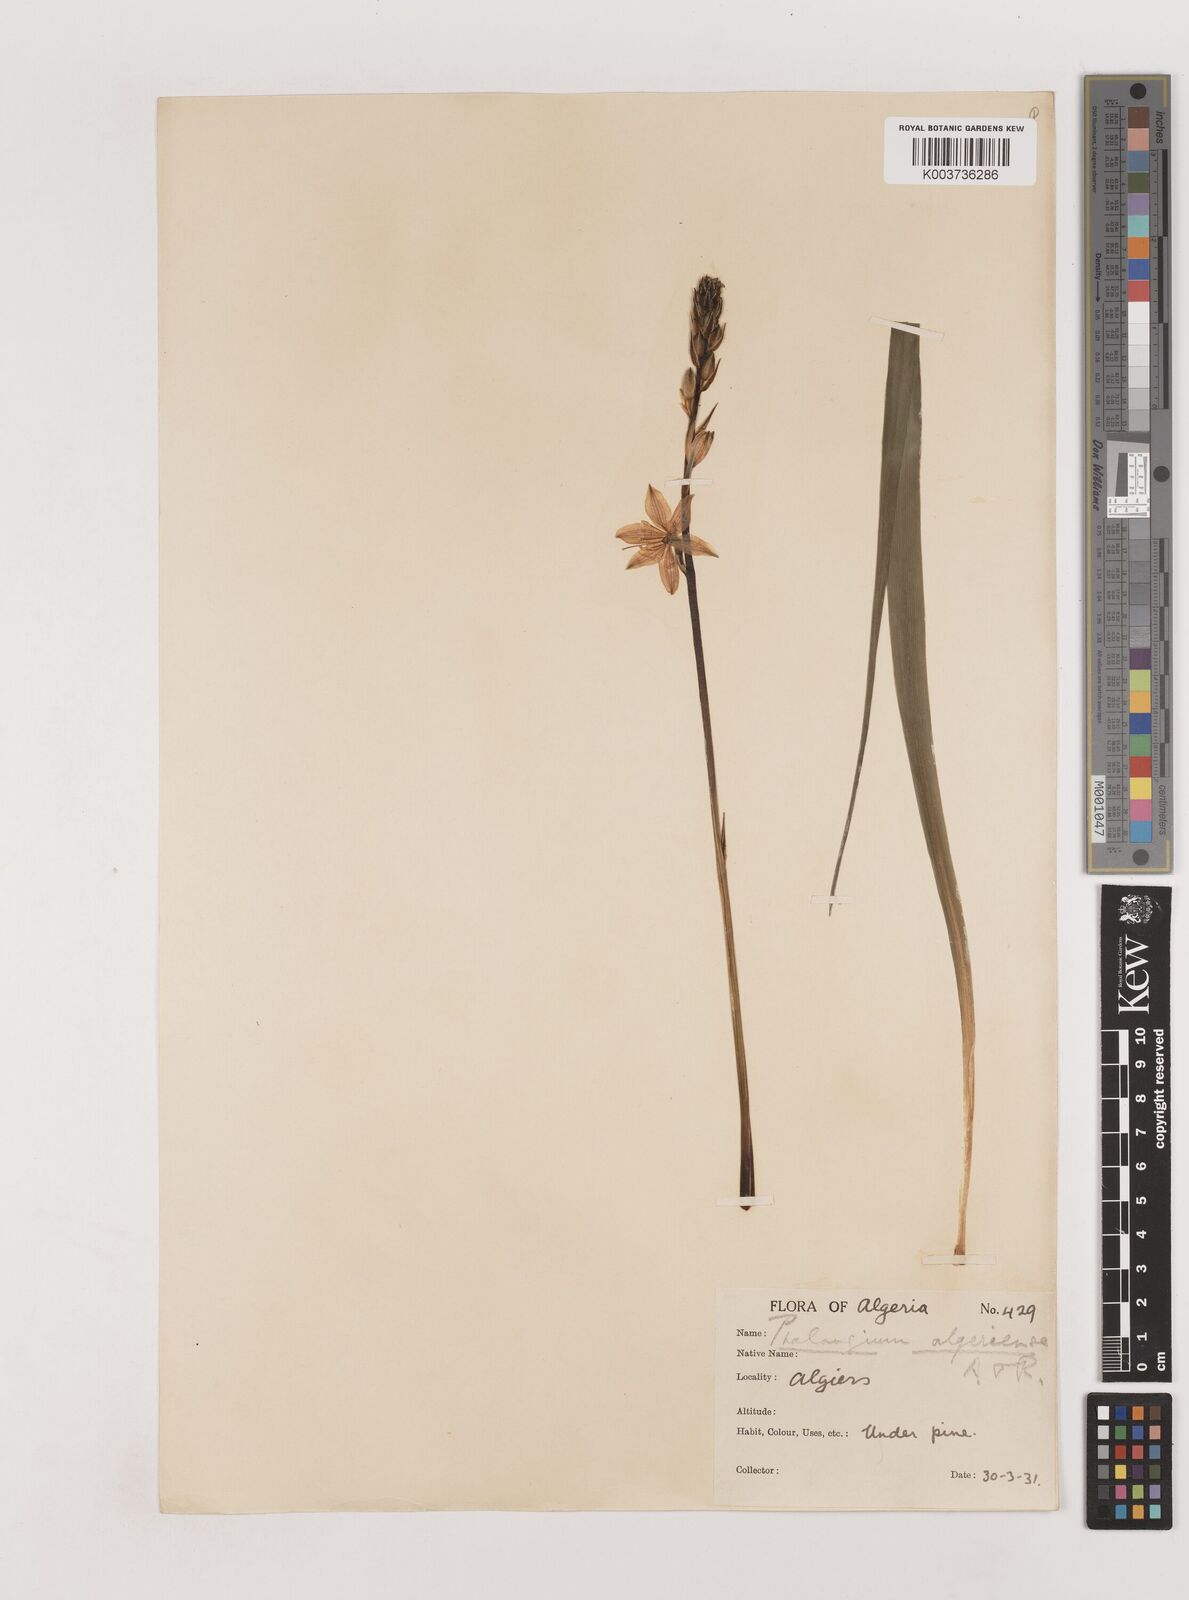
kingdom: Plantae
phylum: Tracheophyta
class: Liliopsida
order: Asparagales
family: Asparagaceae
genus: Anthericum
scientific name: Anthericum liliago
